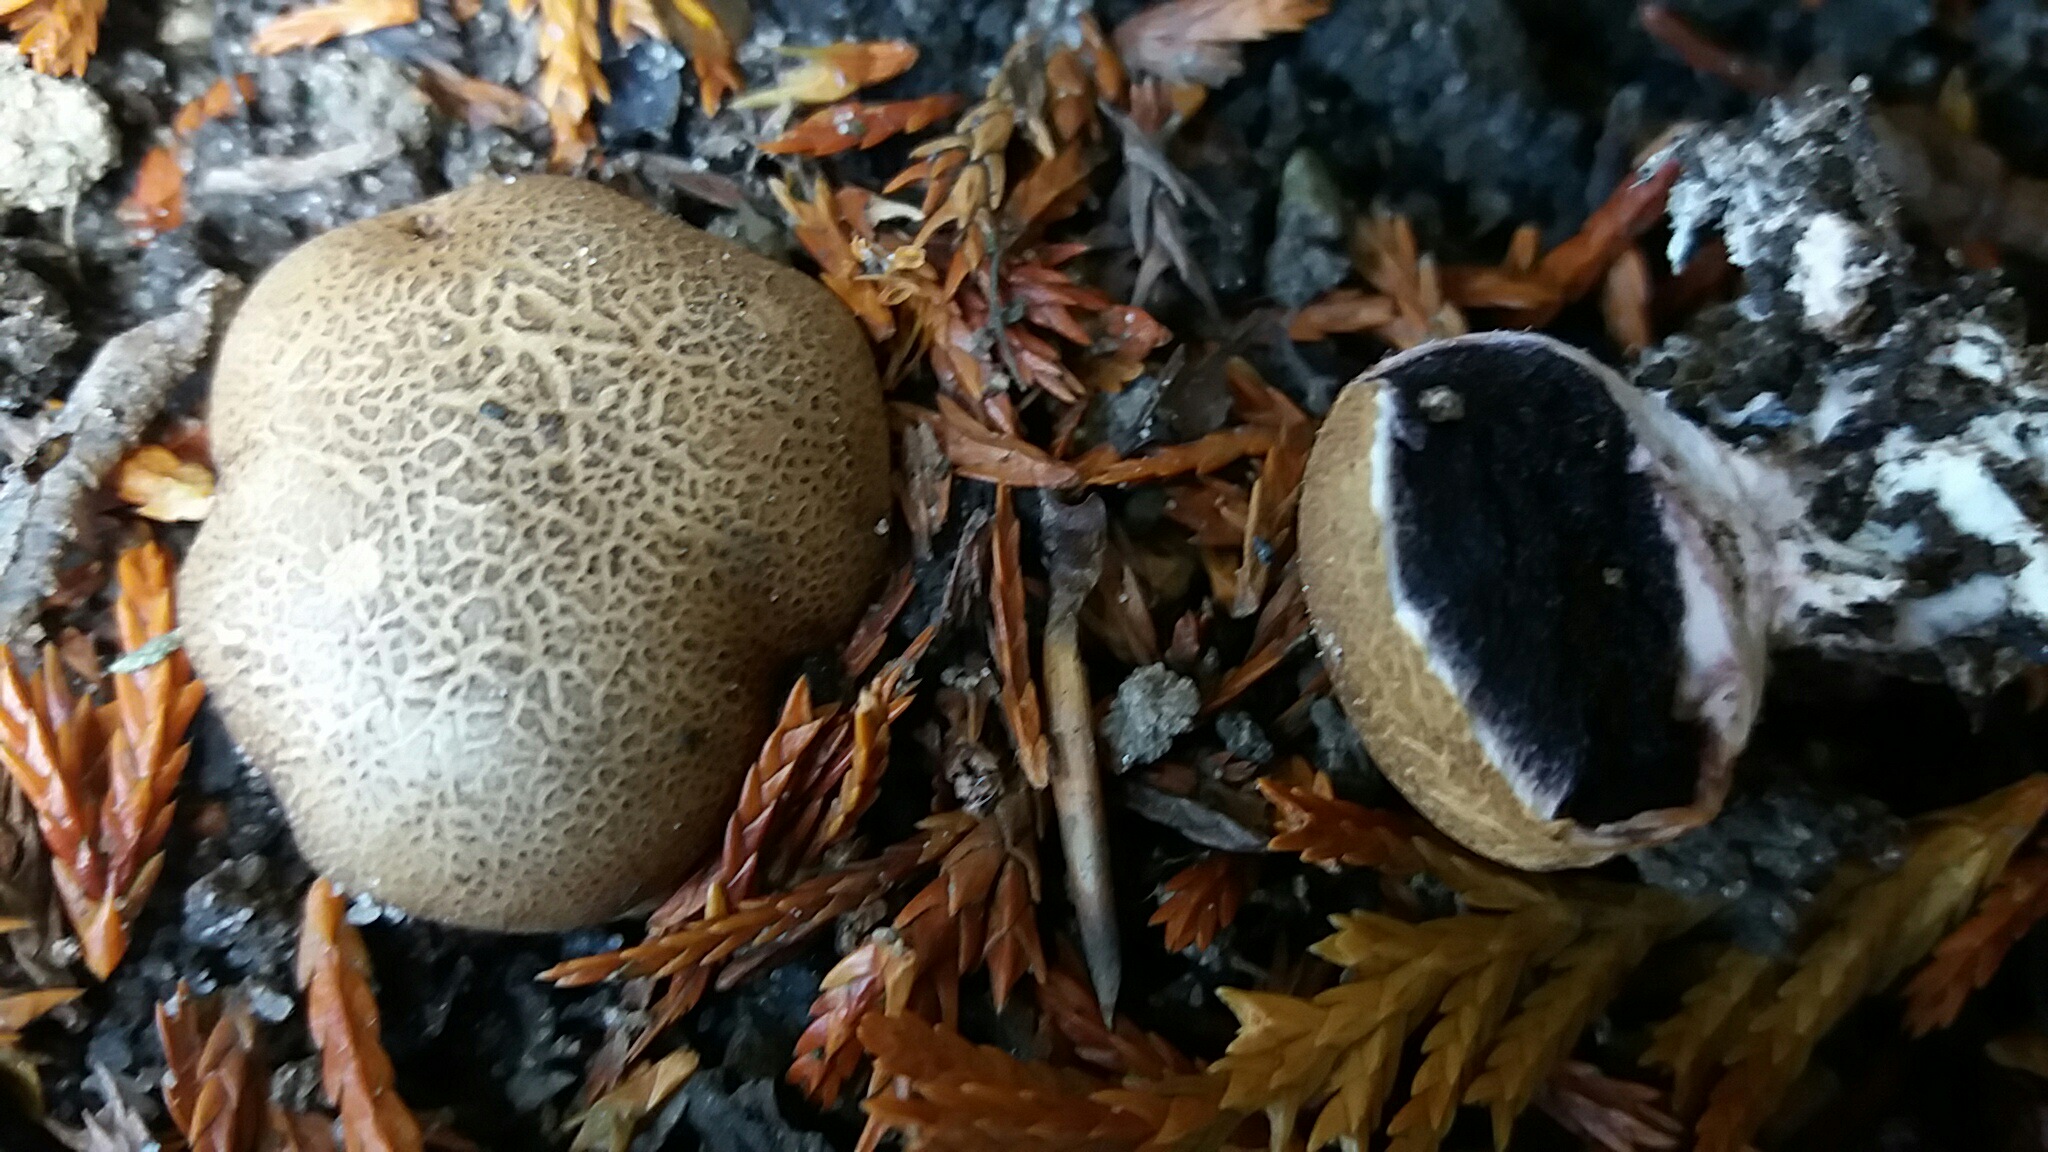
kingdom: Fungi
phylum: Basidiomycota
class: Agaricomycetes
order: Boletales
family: Sclerodermataceae
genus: Scleroderma
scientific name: Scleroderma
